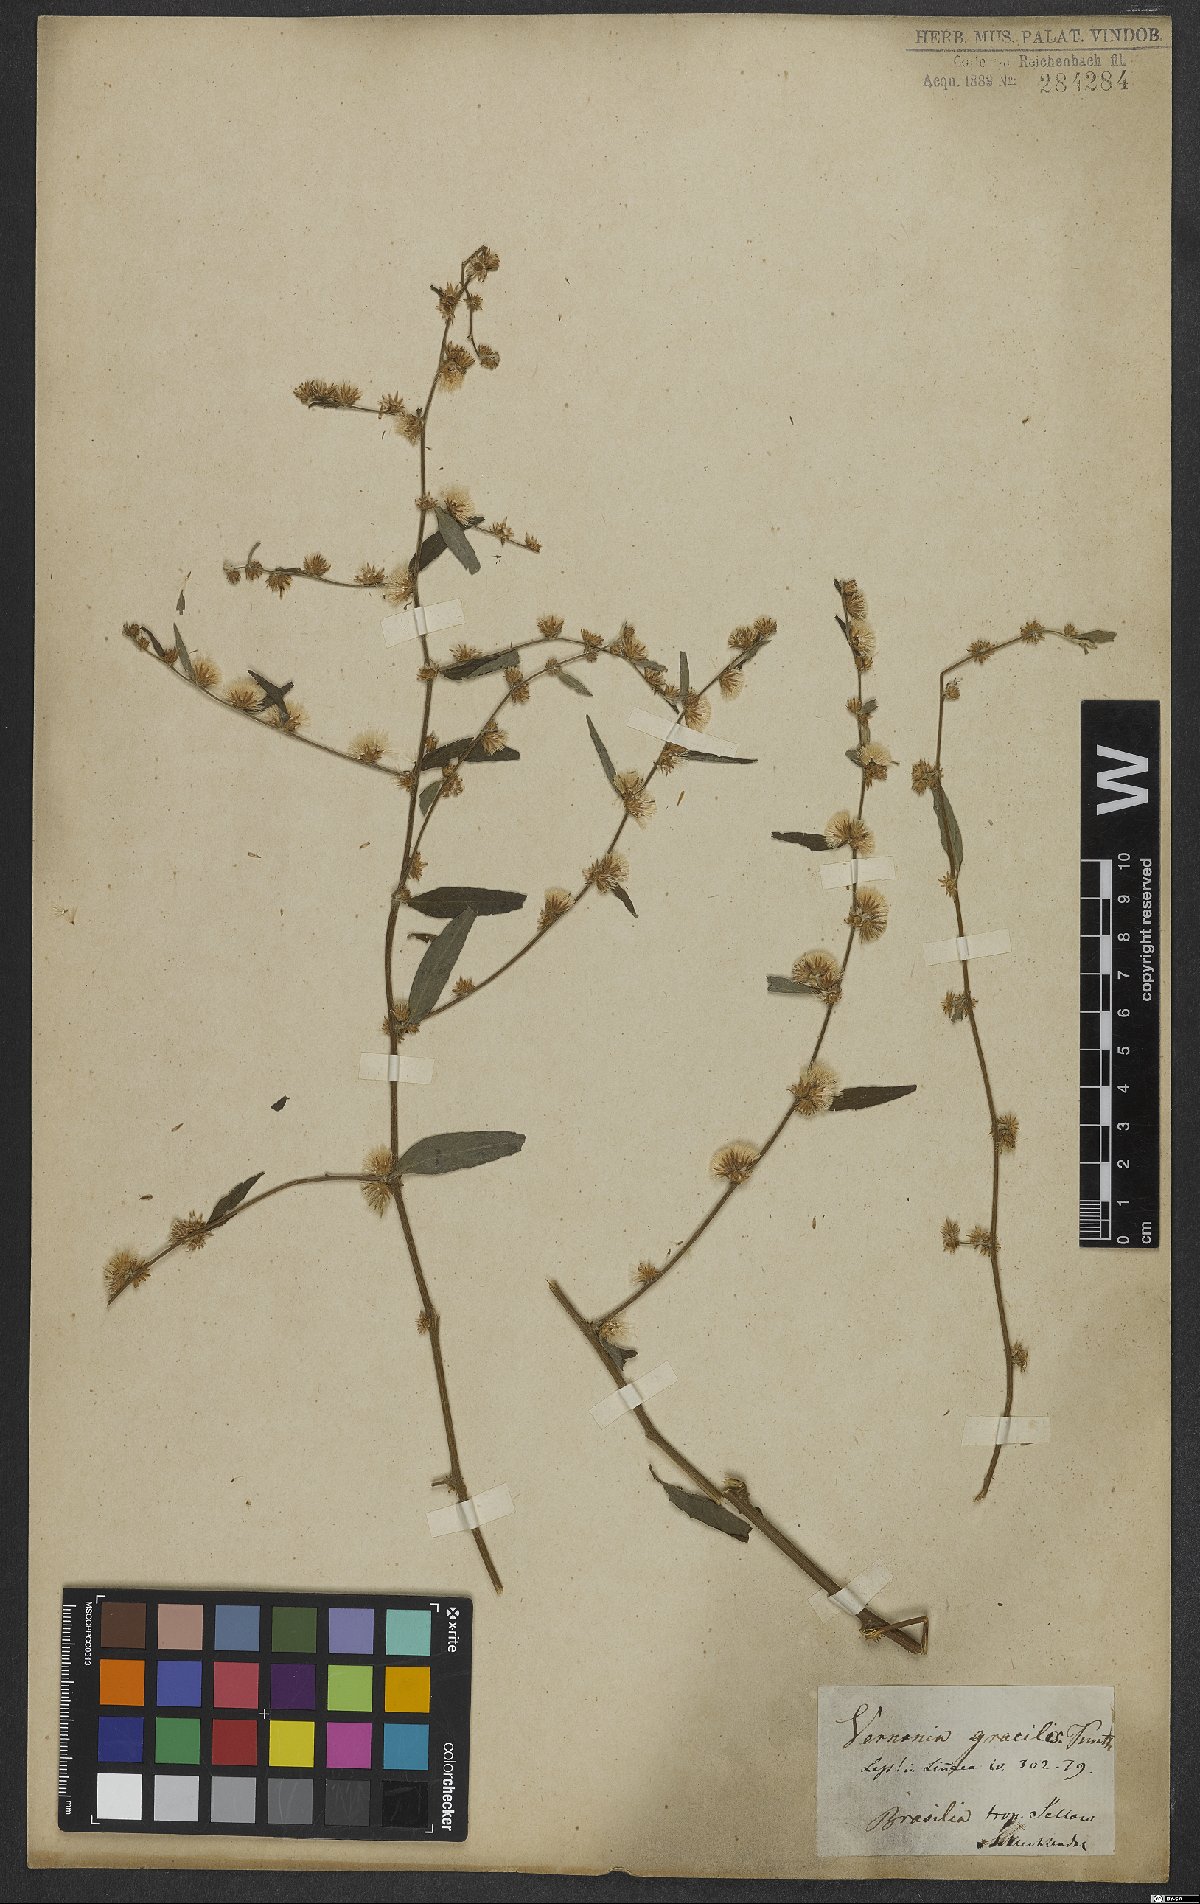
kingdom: Plantae
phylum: Tracheophyta
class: Magnoliopsida
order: Asterales
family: Asteraceae
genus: Lepidaploa
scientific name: Lepidaploa gracilis
